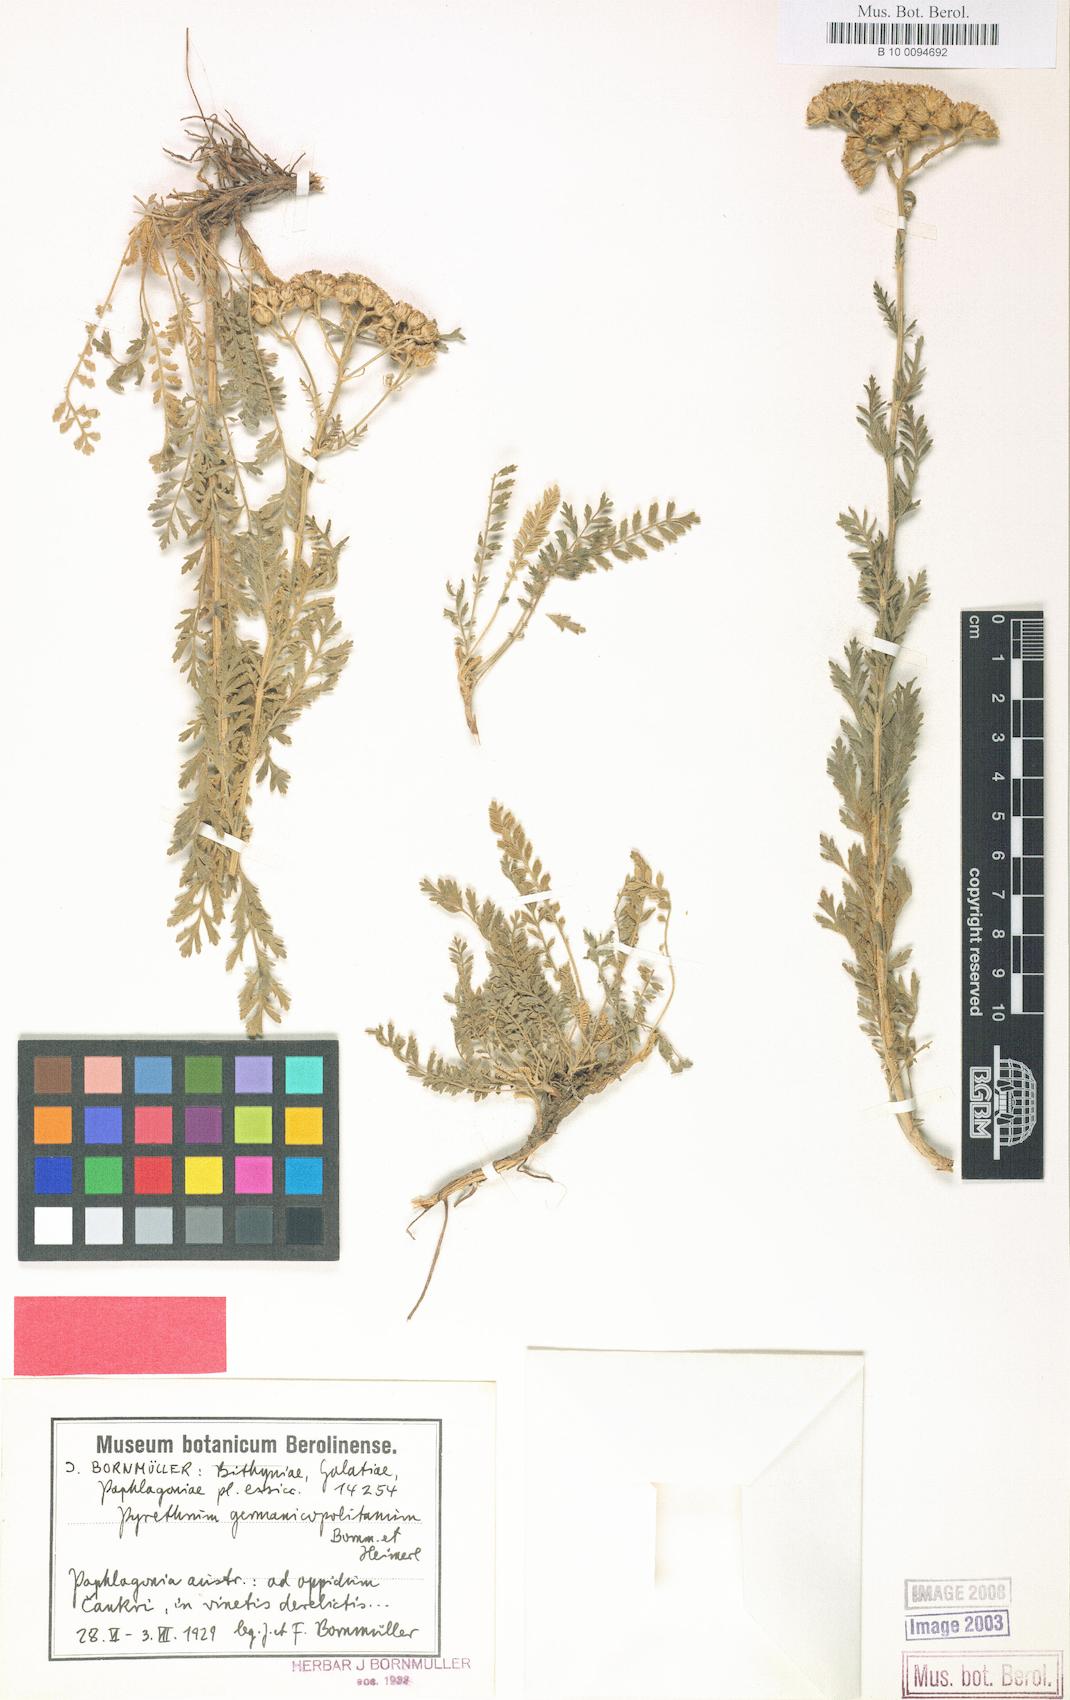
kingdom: Plantae
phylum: Tracheophyta
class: Magnoliopsida
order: Asterales
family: Asteraceae
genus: Tanacetum
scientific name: Tanacetum germanicopolitanum
